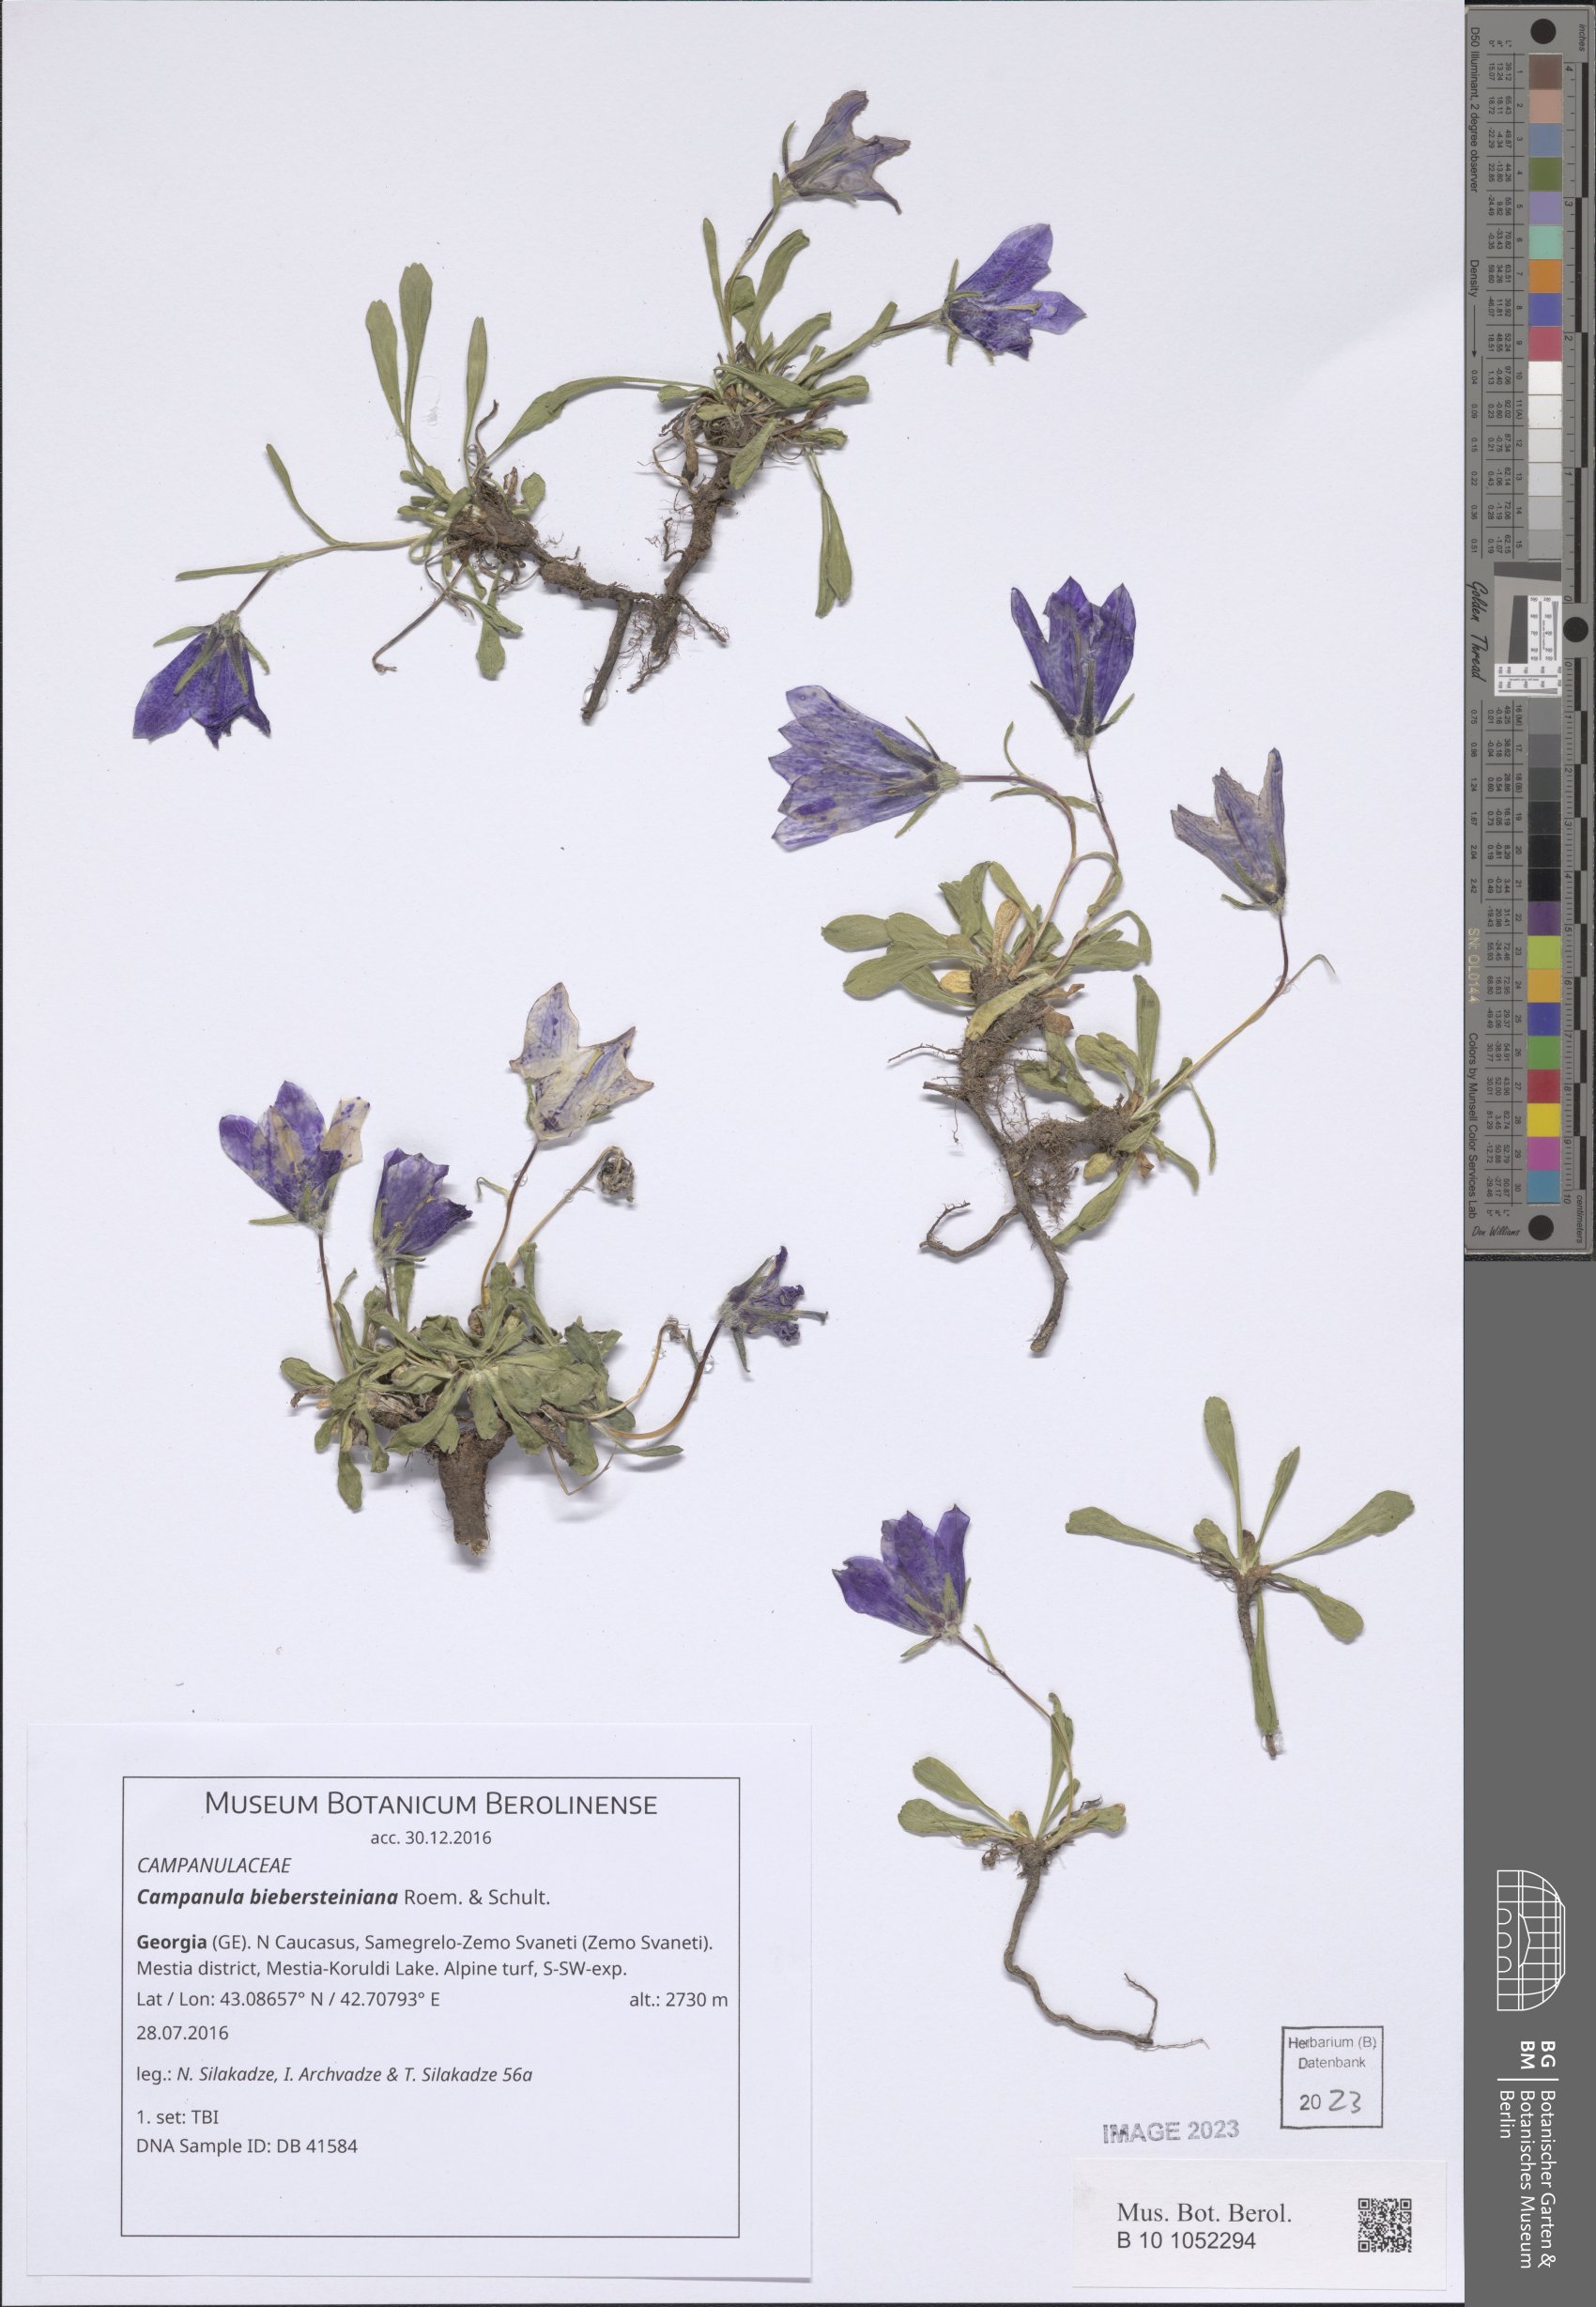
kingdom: Plantae
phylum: Tracheophyta
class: Magnoliopsida
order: Asterales
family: Campanulaceae
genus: Campanula
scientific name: Campanula tridentata
